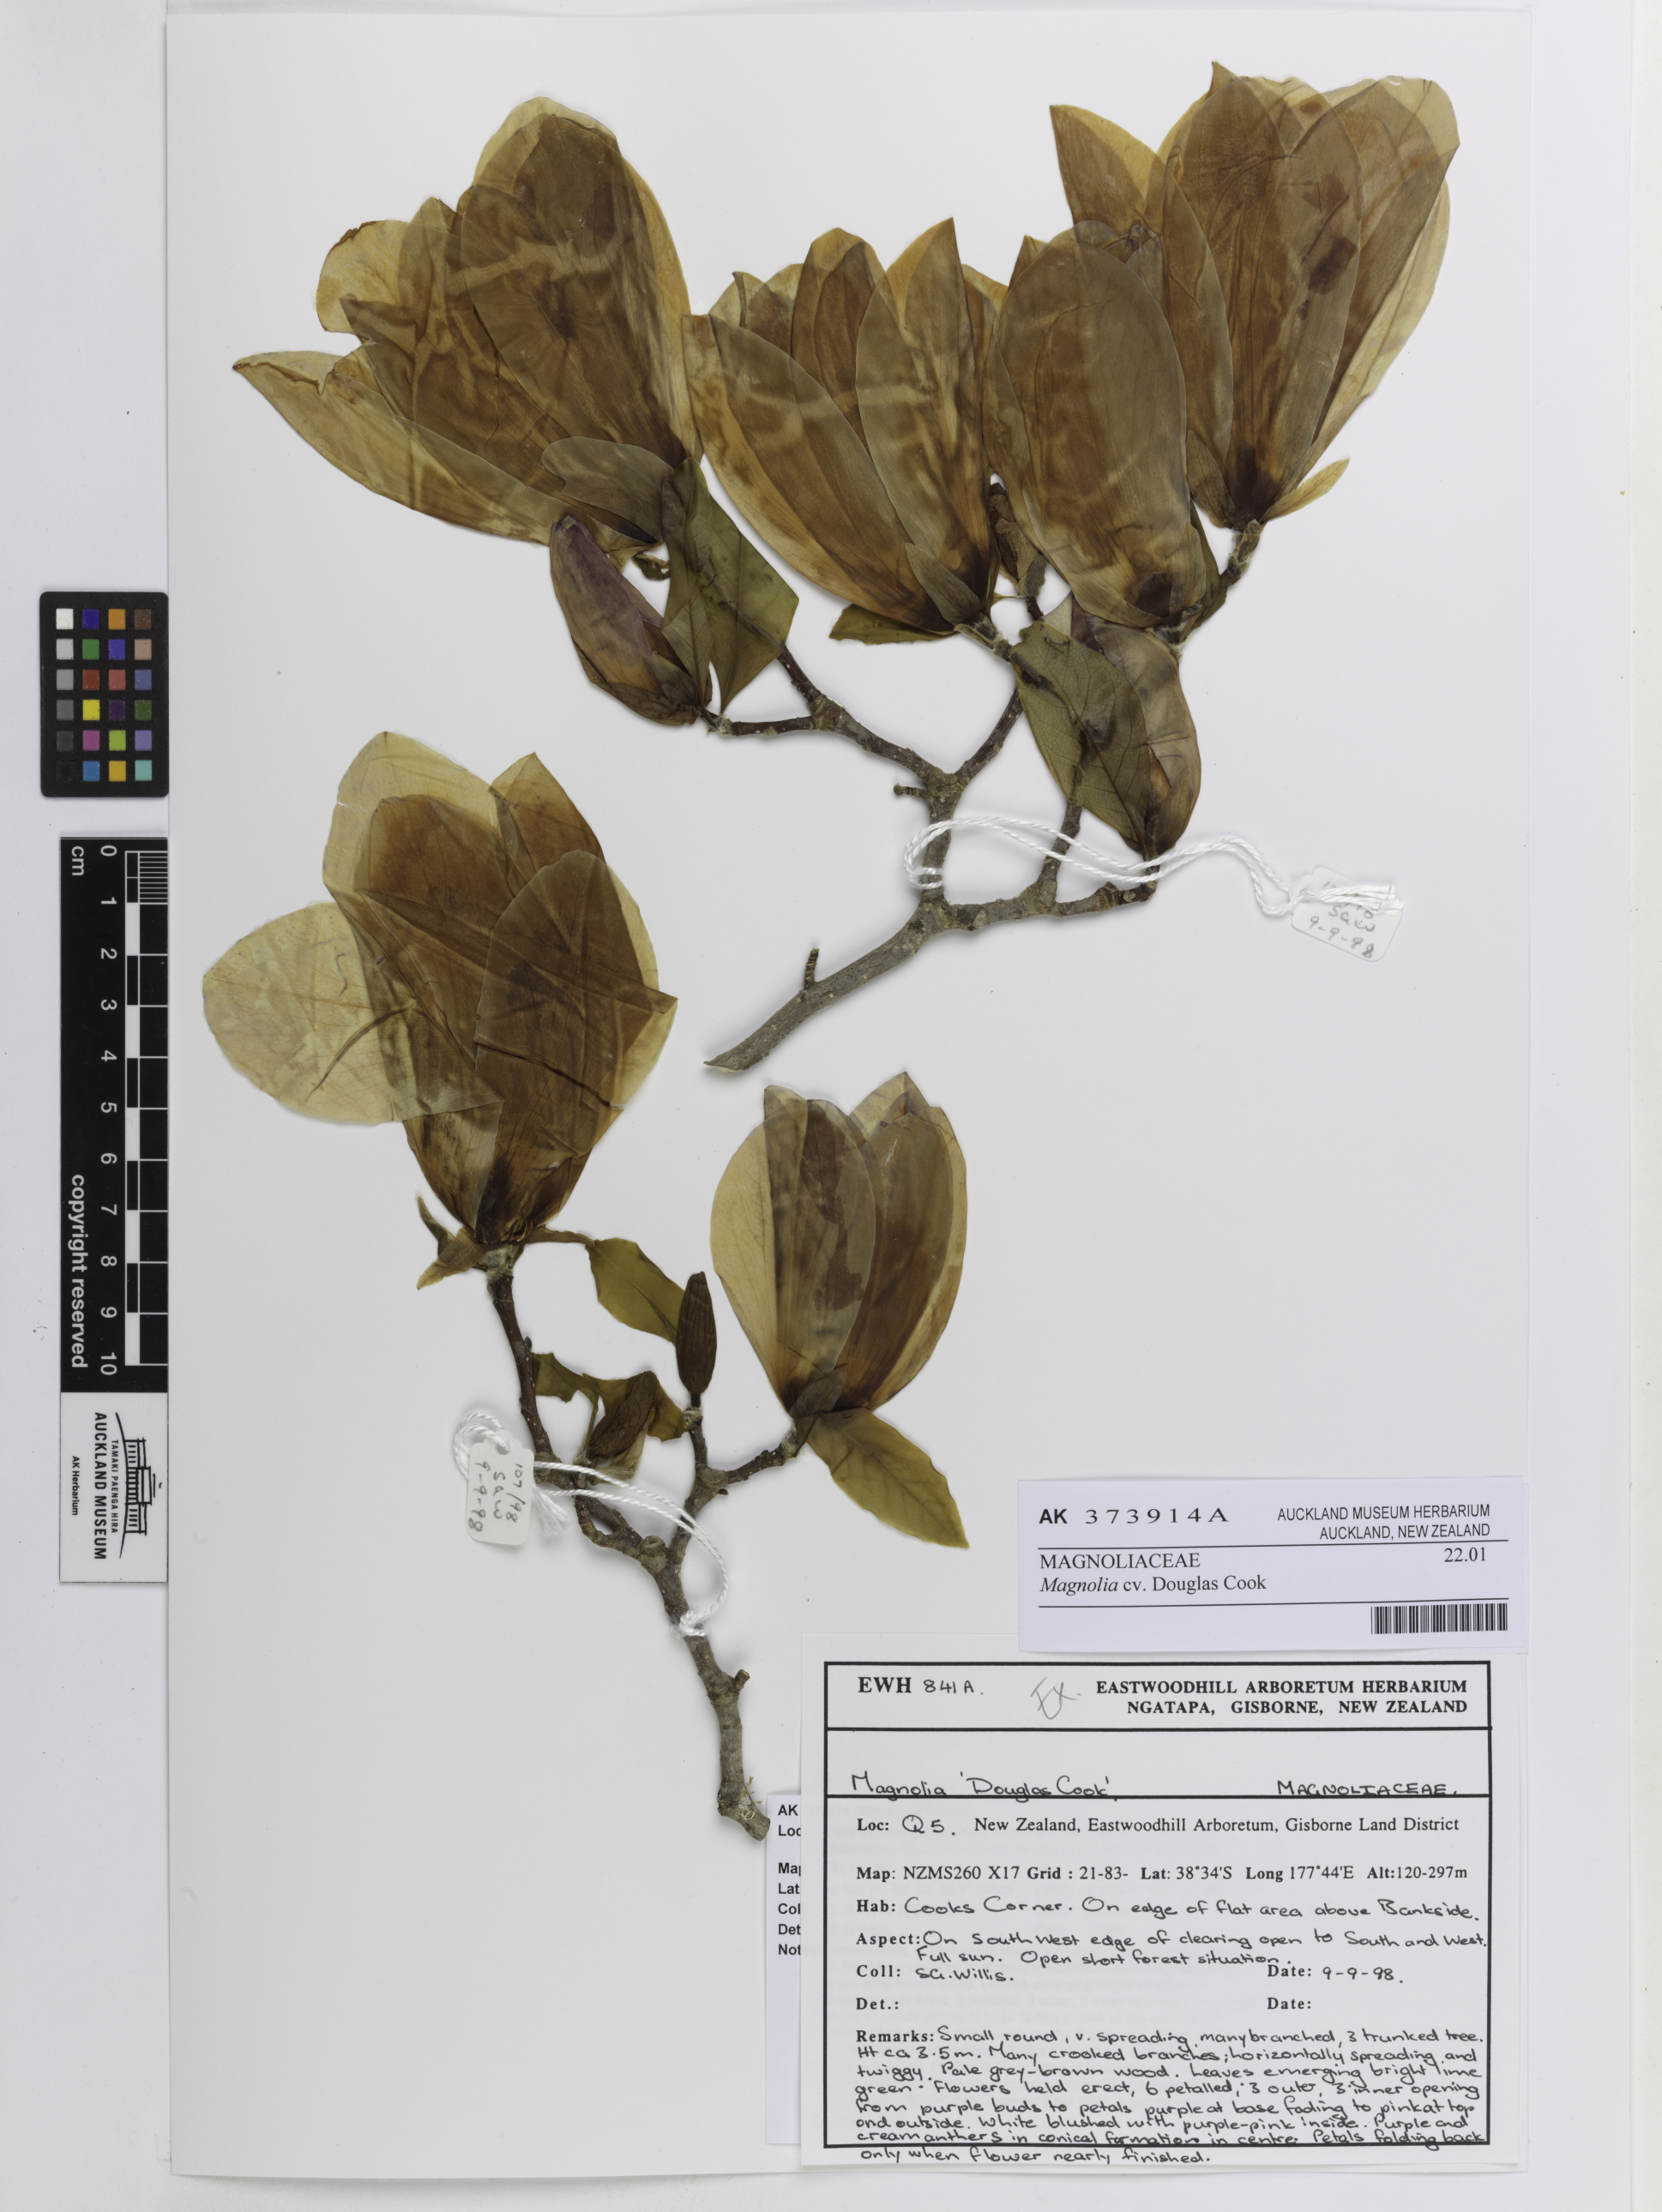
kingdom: Plantae
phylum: Tracheophyta
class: Magnoliopsida
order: Magnoliales
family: Magnoliaceae
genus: Magnolia
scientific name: Magnolia
